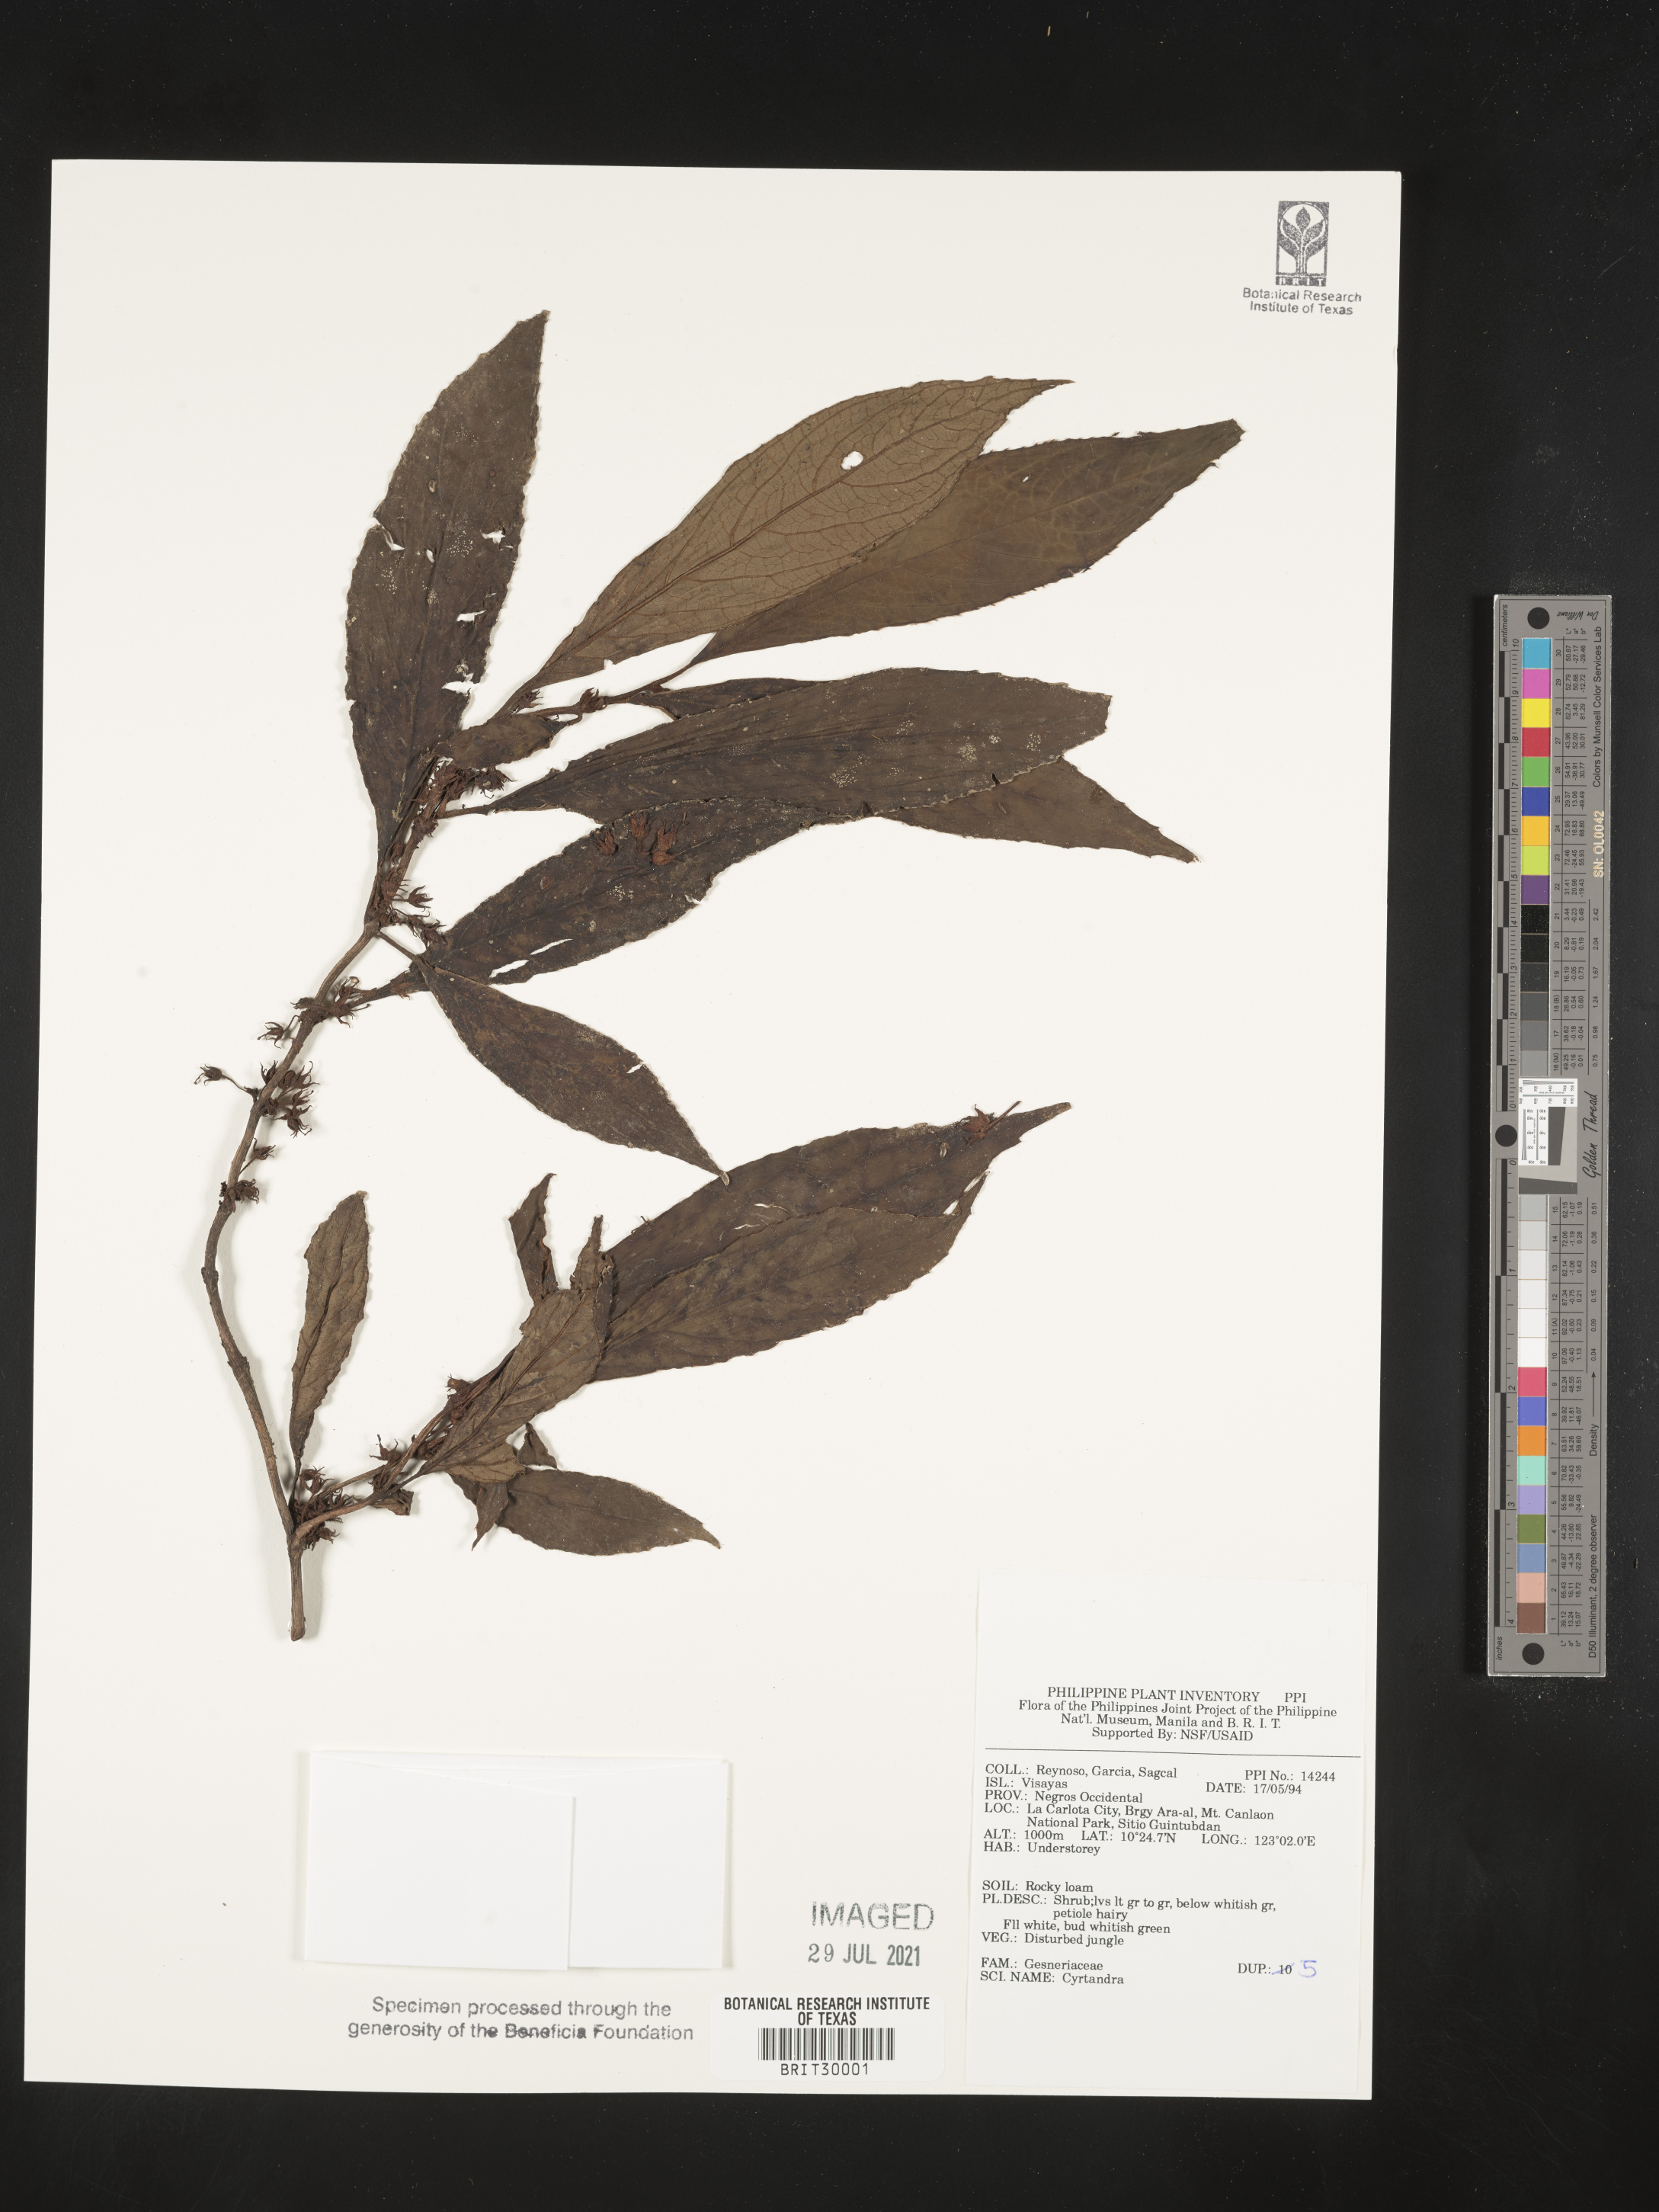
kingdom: Plantae
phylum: Tracheophyta
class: Magnoliopsida
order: Lamiales
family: Gesneriaceae
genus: Cyrtandra
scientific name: Cyrtandra
